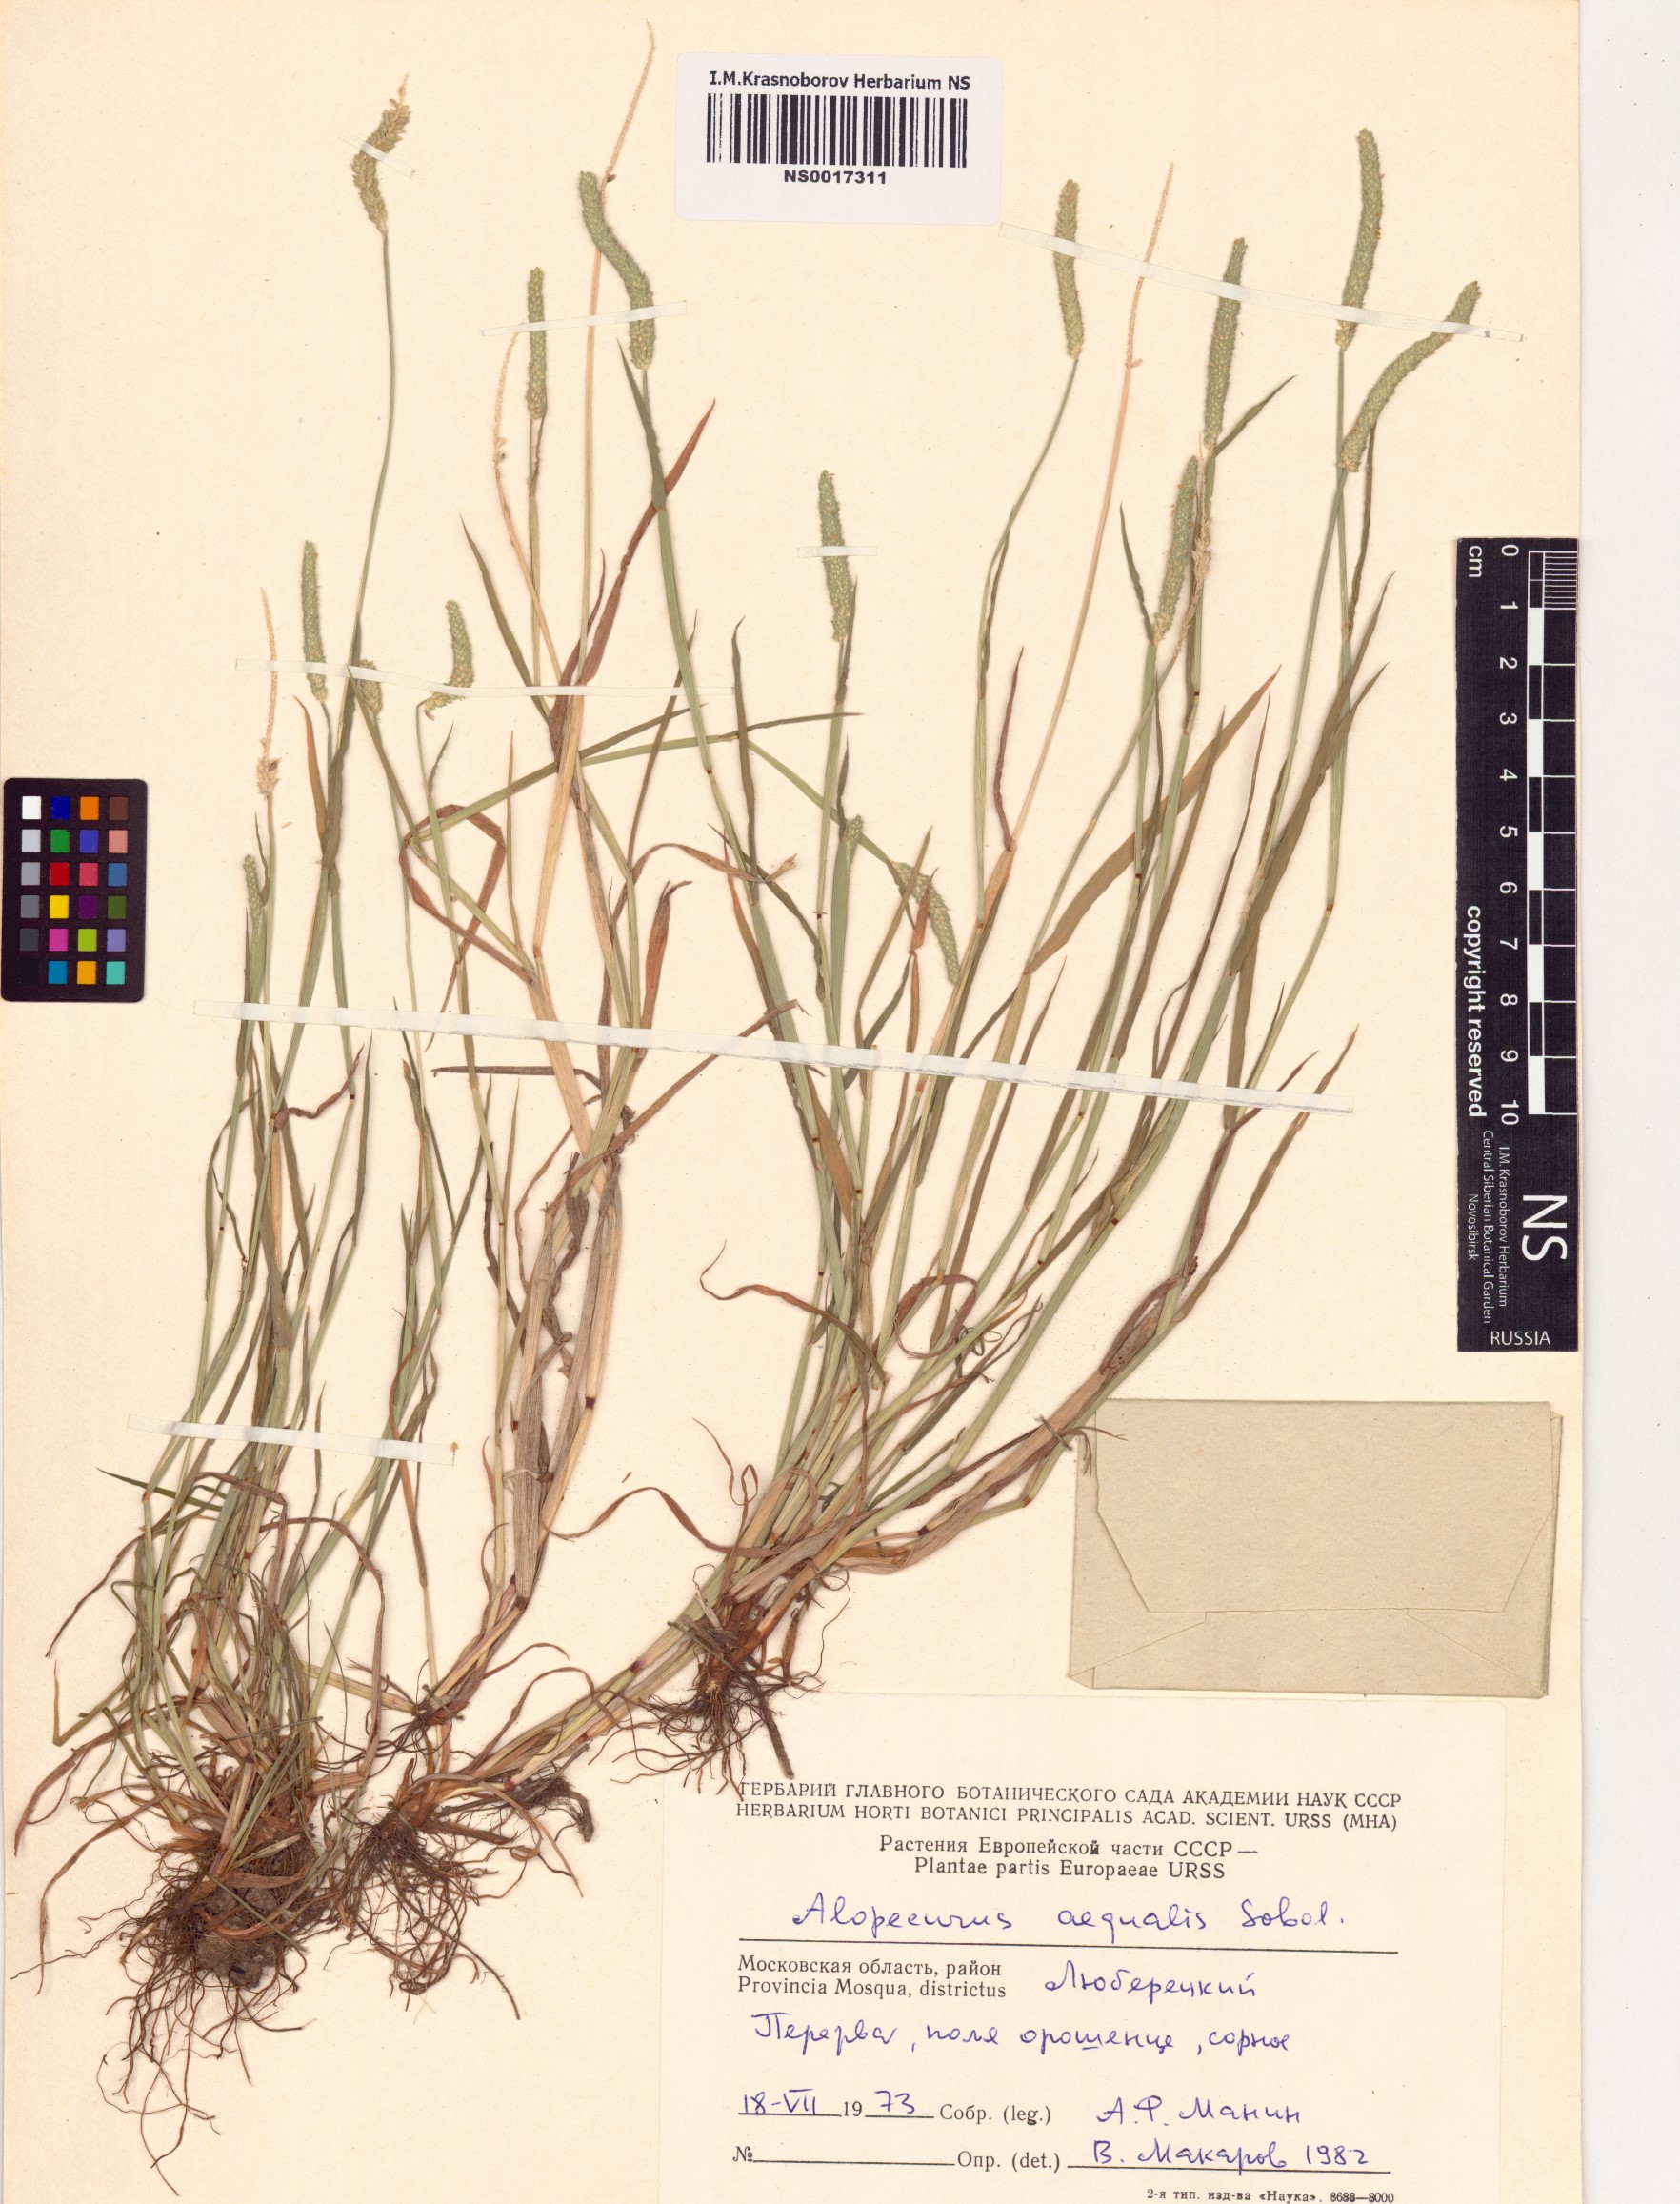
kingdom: Plantae
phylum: Tracheophyta
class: Liliopsida
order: Poales
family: Poaceae
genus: Alopecurus
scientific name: Alopecurus aequalis
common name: Orange foxtail
